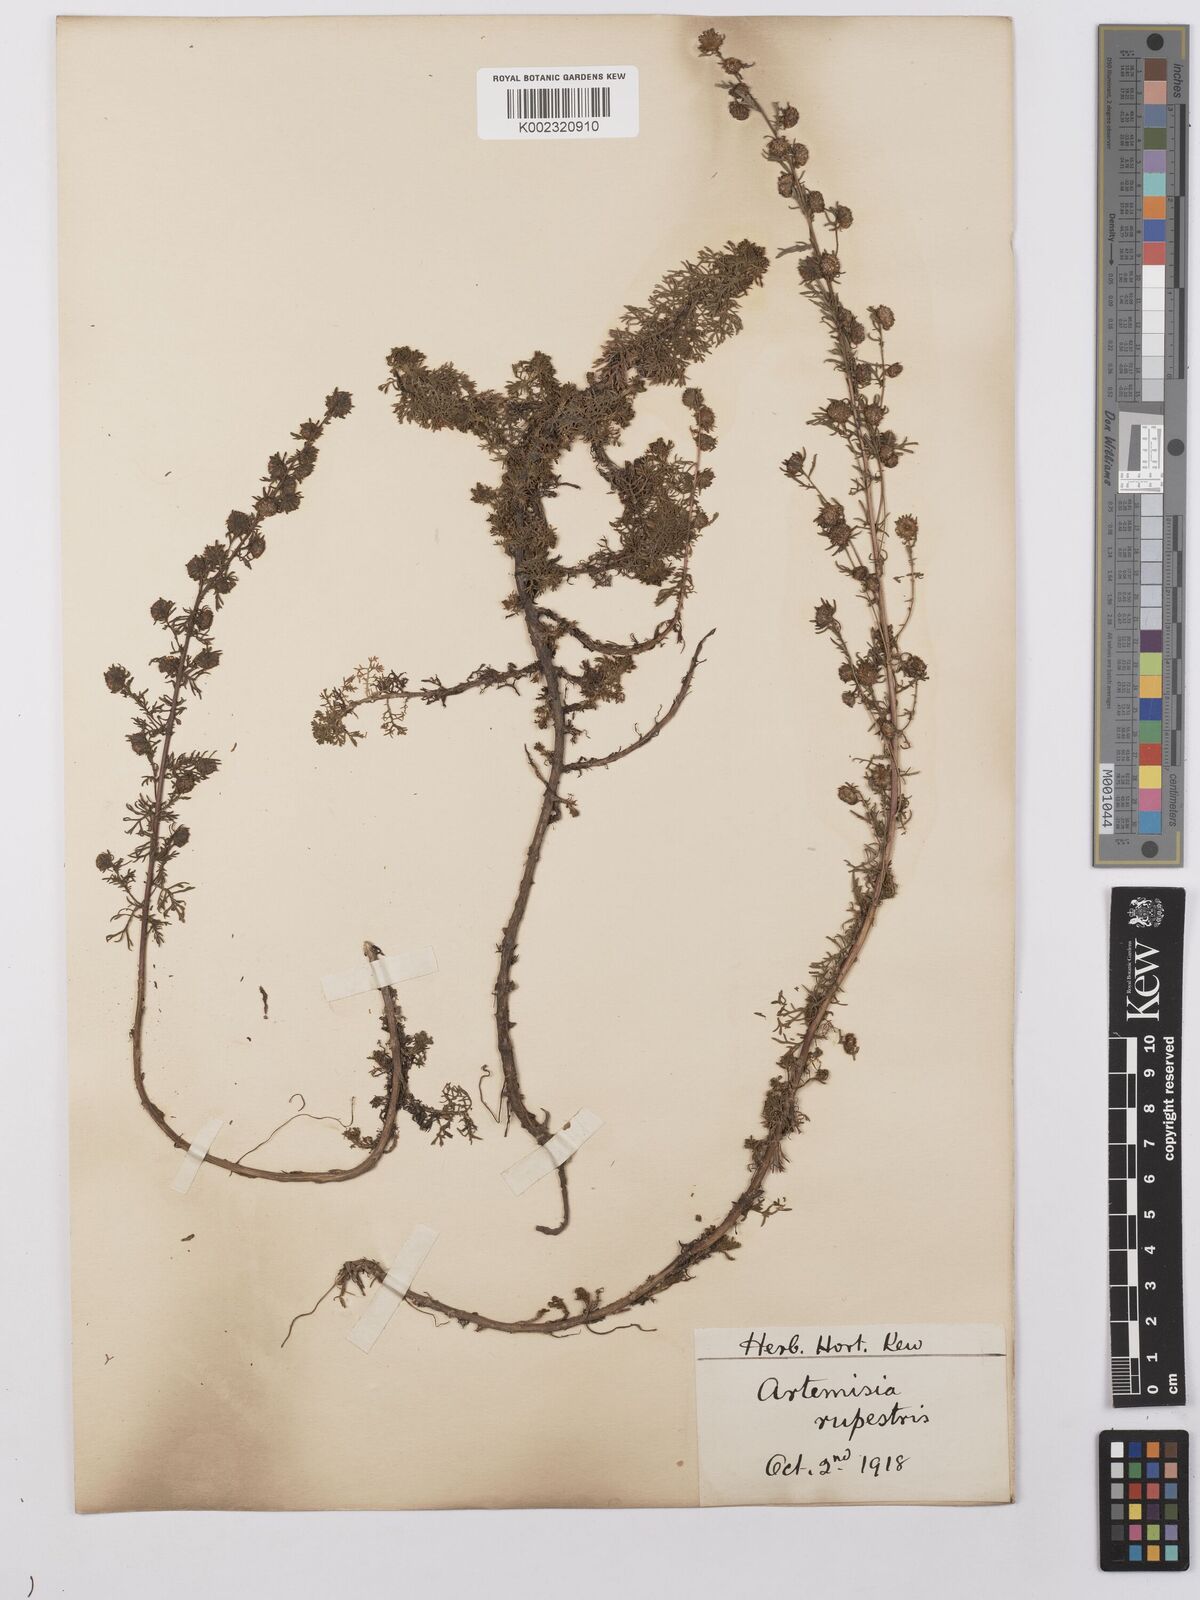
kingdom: Plantae
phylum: Tracheophyta
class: Magnoliopsida
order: Asterales
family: Asteraceae
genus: Artemisia
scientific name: Artemisia rupestris
